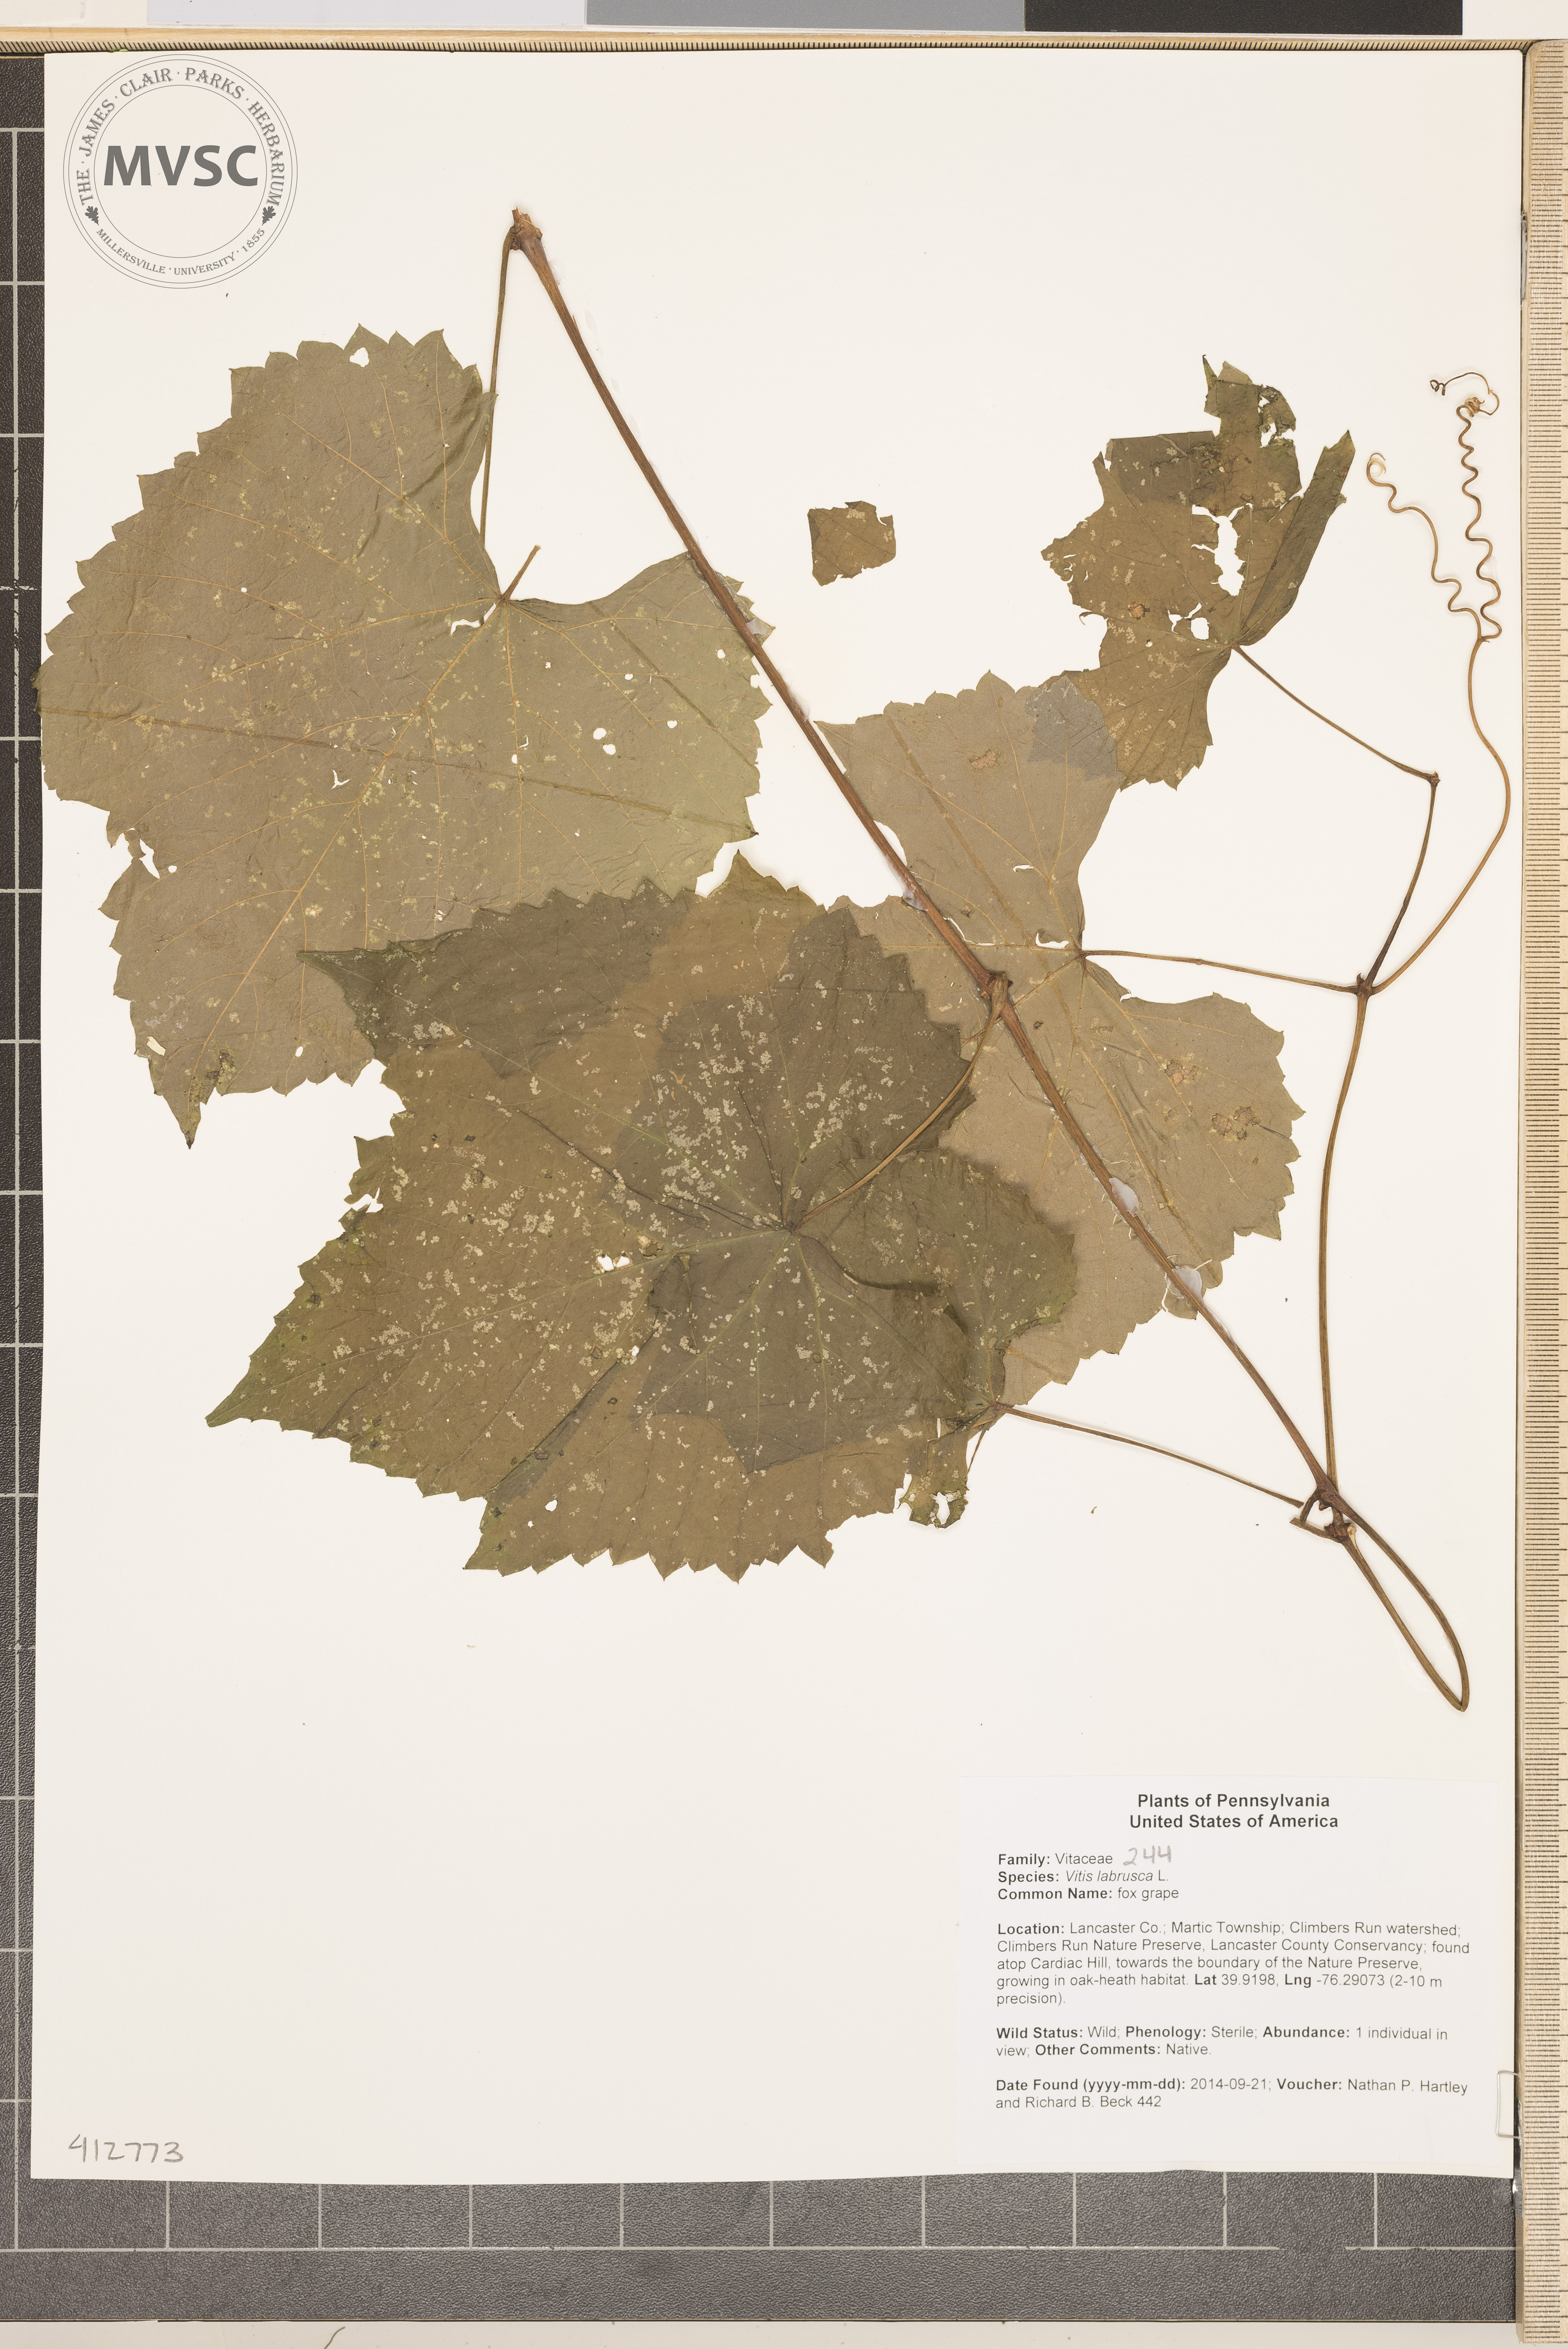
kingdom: Plantae
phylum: Tracheophyta
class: Magnoliopsida
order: Vitales
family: Vitaceae
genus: Vitis
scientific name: Vitis labrusca
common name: fox grape
